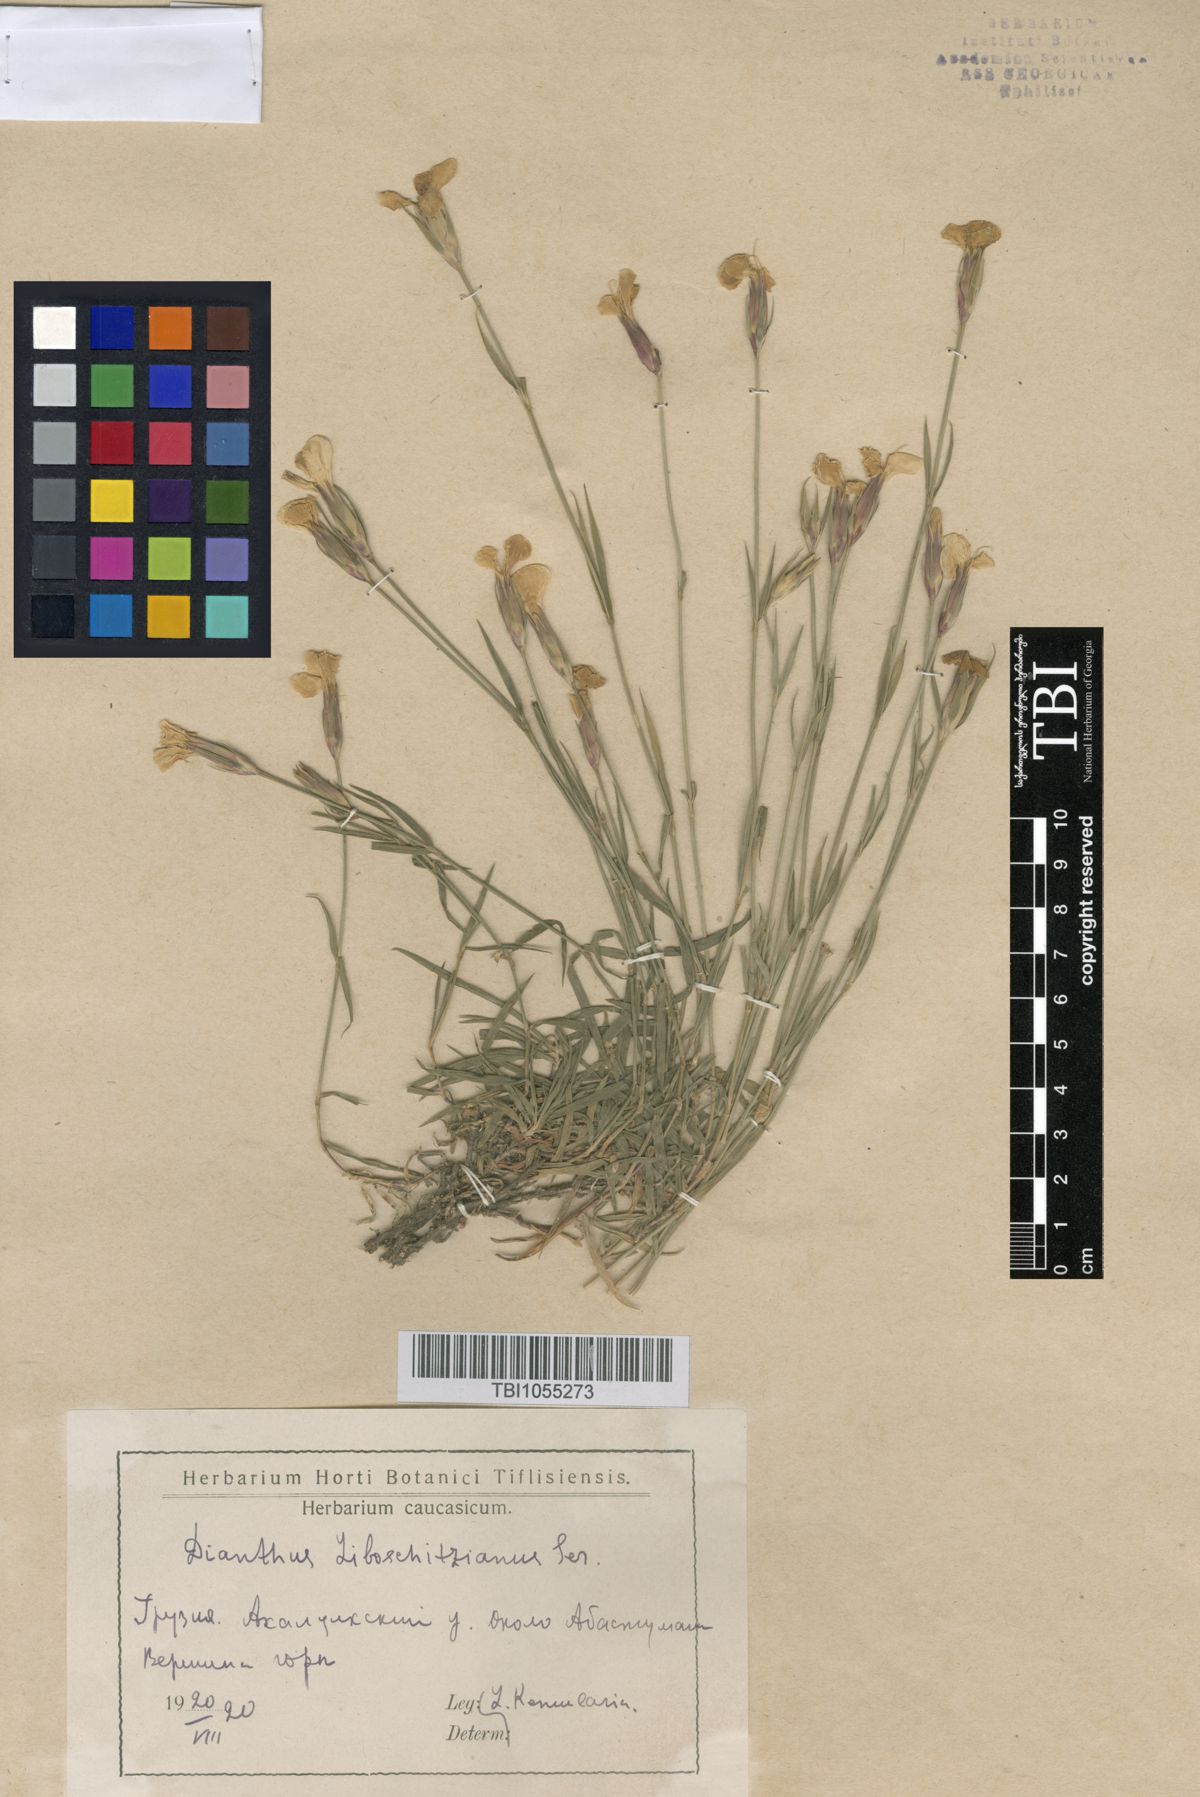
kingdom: Plantae
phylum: Tracheophyta
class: Magnoliopsida
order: Caryophyllales
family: Caryophyllaceae
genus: Dianthus
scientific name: Dianthus cretaceus
